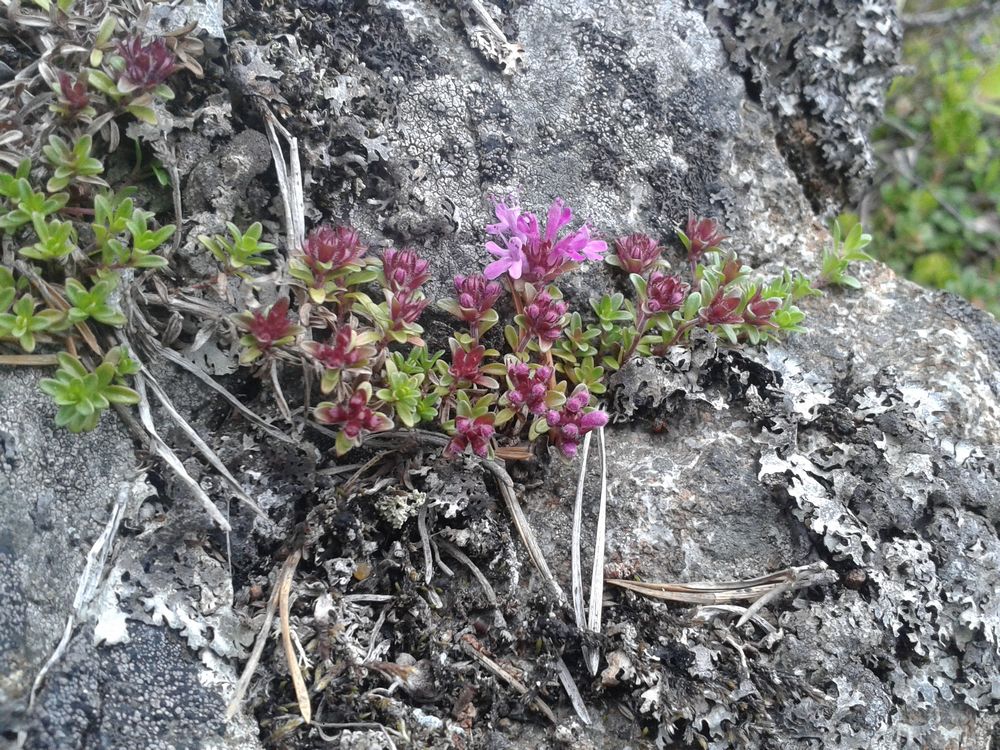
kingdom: Plantae
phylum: Tracheophyta
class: Magnoliopsida
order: Lamiales
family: Lamiaceae
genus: Thymus
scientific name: Thymus serpyllum
